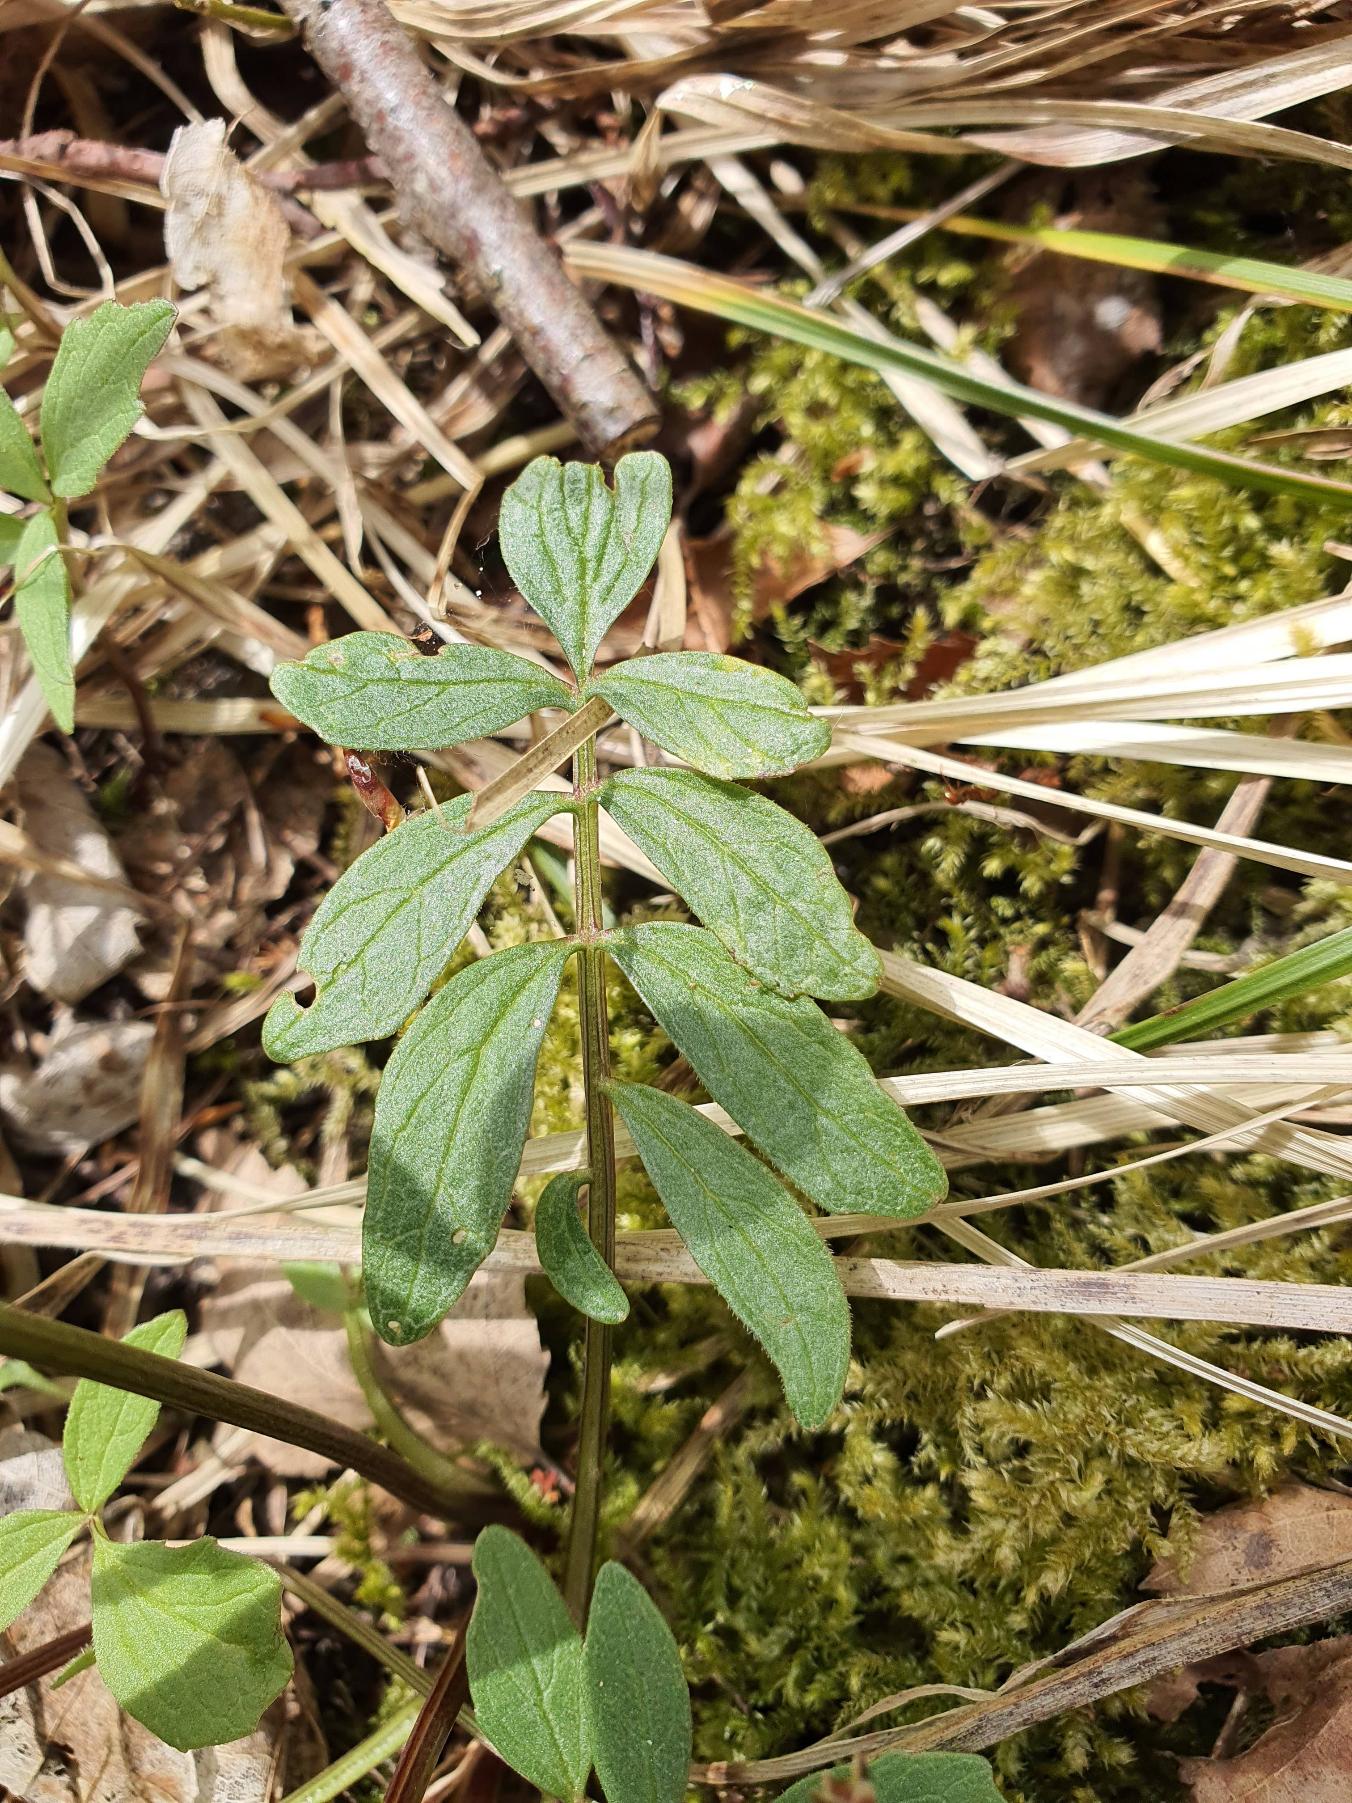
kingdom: Plantae
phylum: Tracheophyta
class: Magnoliopsida
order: Dipsacales
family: Caprifoliaceae
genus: Valeriana
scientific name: Valeriana sambucifolia
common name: Hyldebladet baldrian
